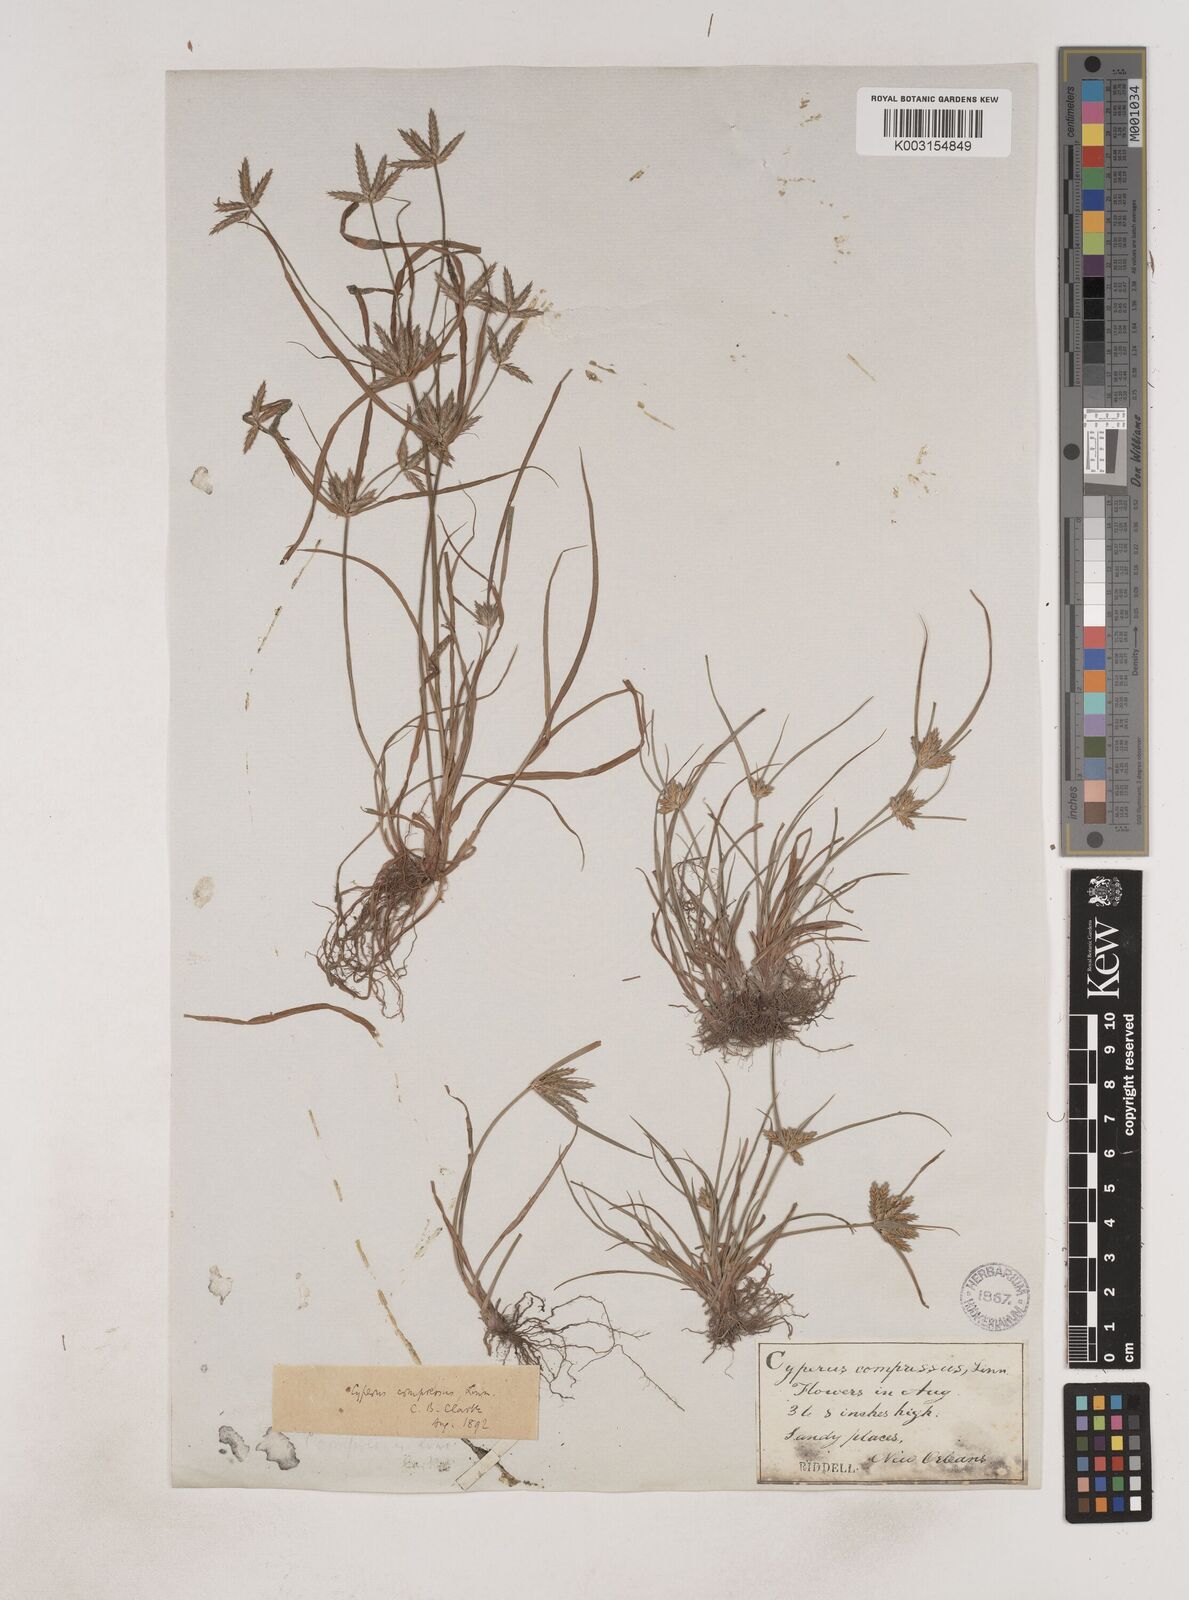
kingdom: Plantae
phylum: Tracheophyta
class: Liliopsida
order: Poales
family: Cyperaceae
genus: Cyperus
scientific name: Cyperus compressus
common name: Poorland flatsedge
